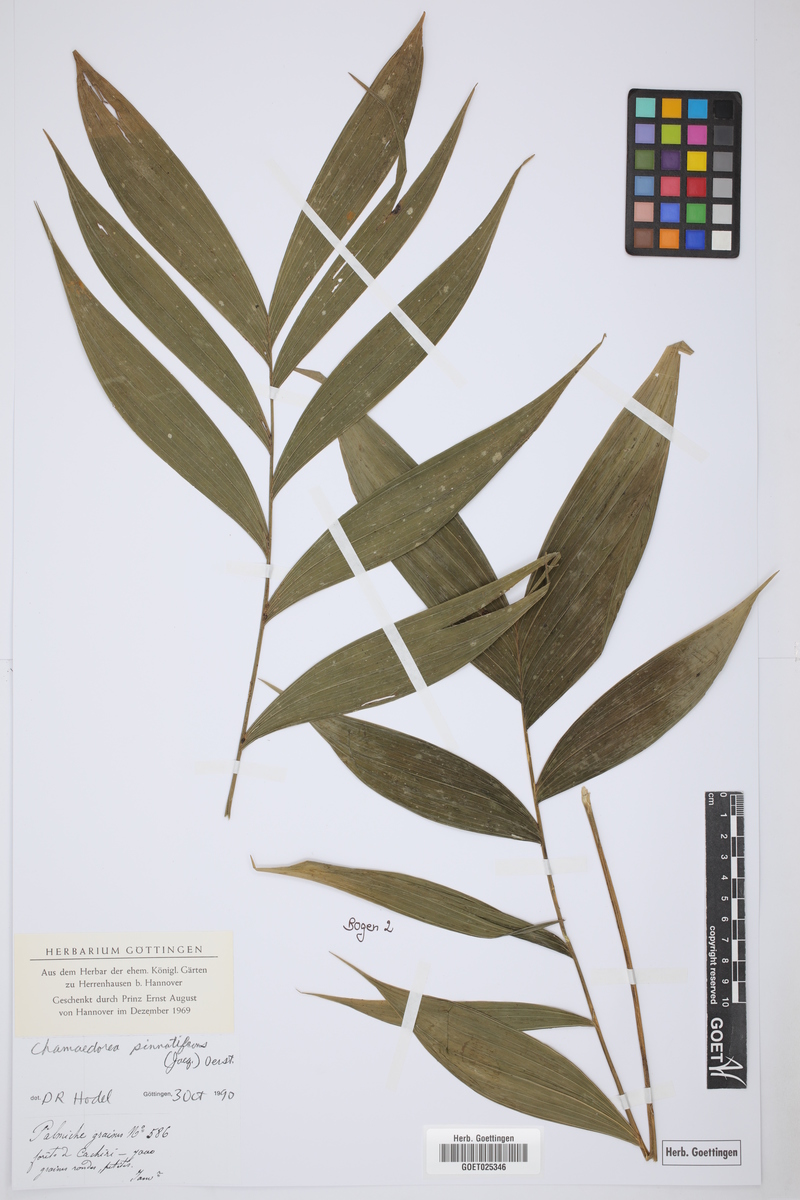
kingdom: Plantae
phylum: Tracheophyta
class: Liliopsida
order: Arecales
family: Arecaceae
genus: Chamaedorea
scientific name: Chamaedorea pinnatifrons
